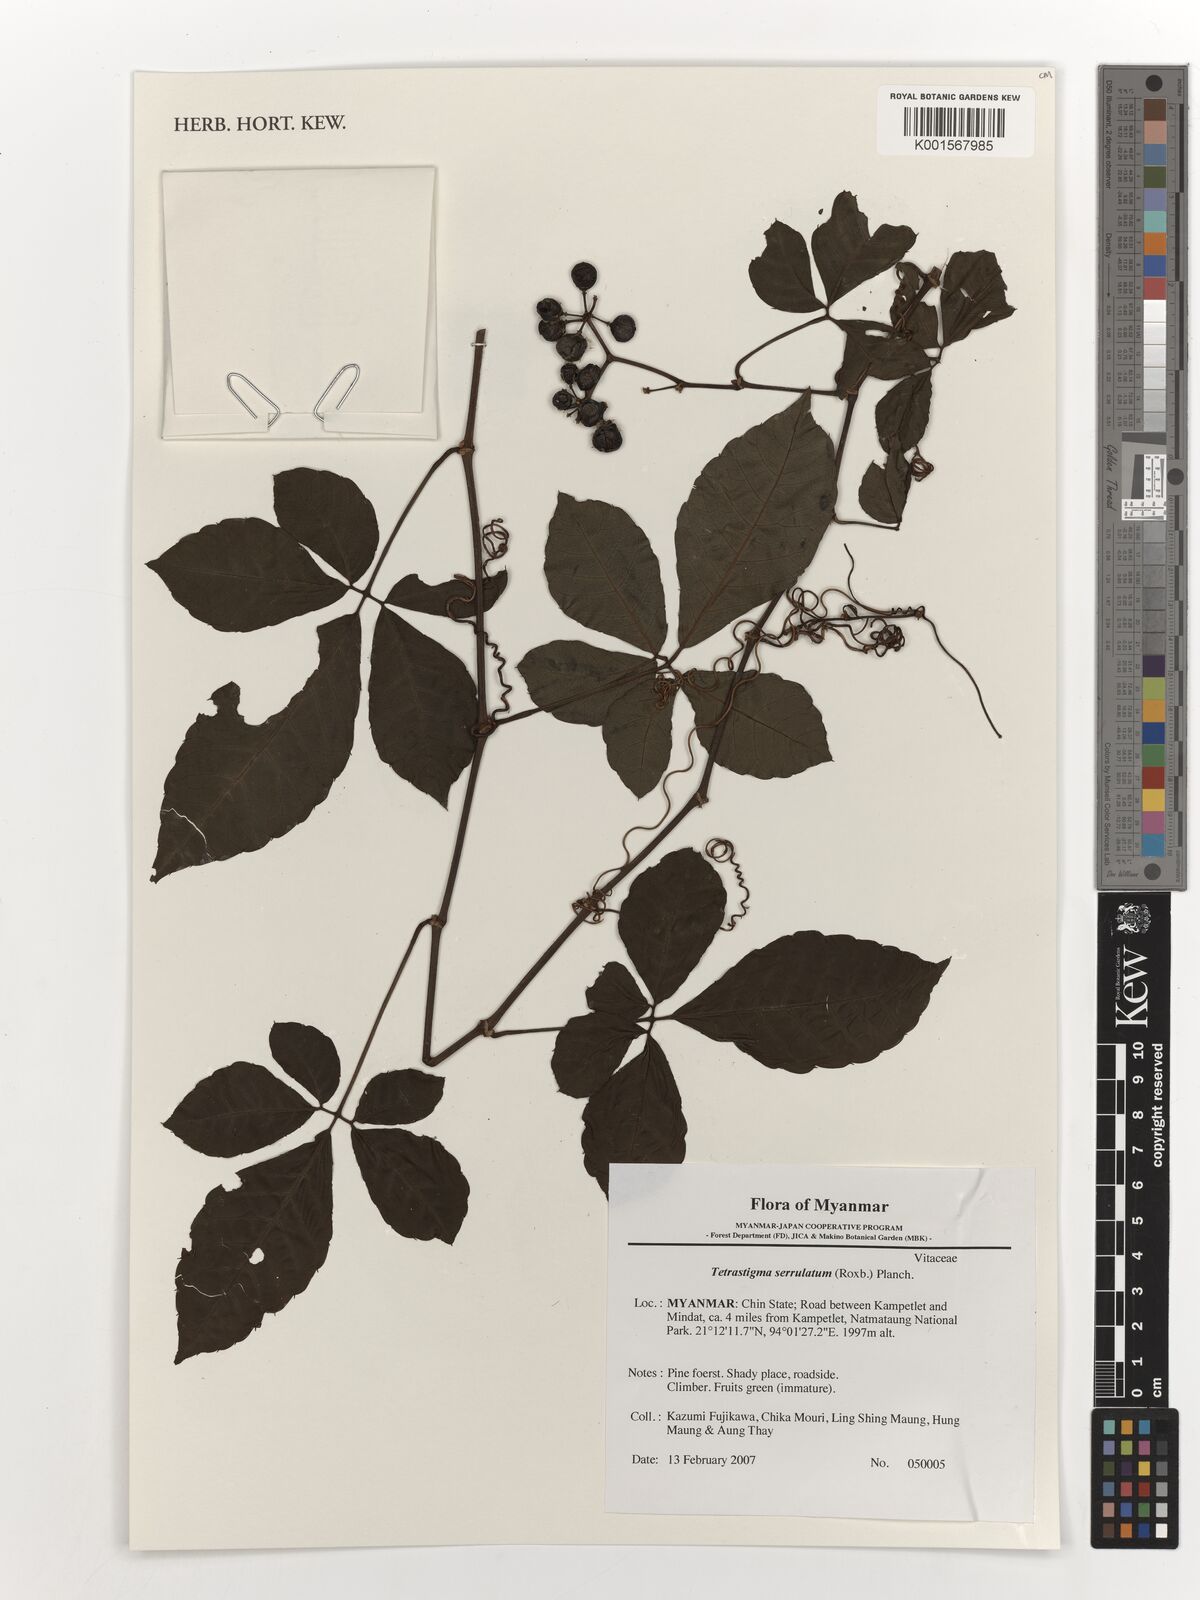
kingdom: Plantae
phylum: Tracheophyta
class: Magnoliopsida
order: Vitales
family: Vitaceae
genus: Tetrastigma
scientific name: Tetrastigma serrulatum
